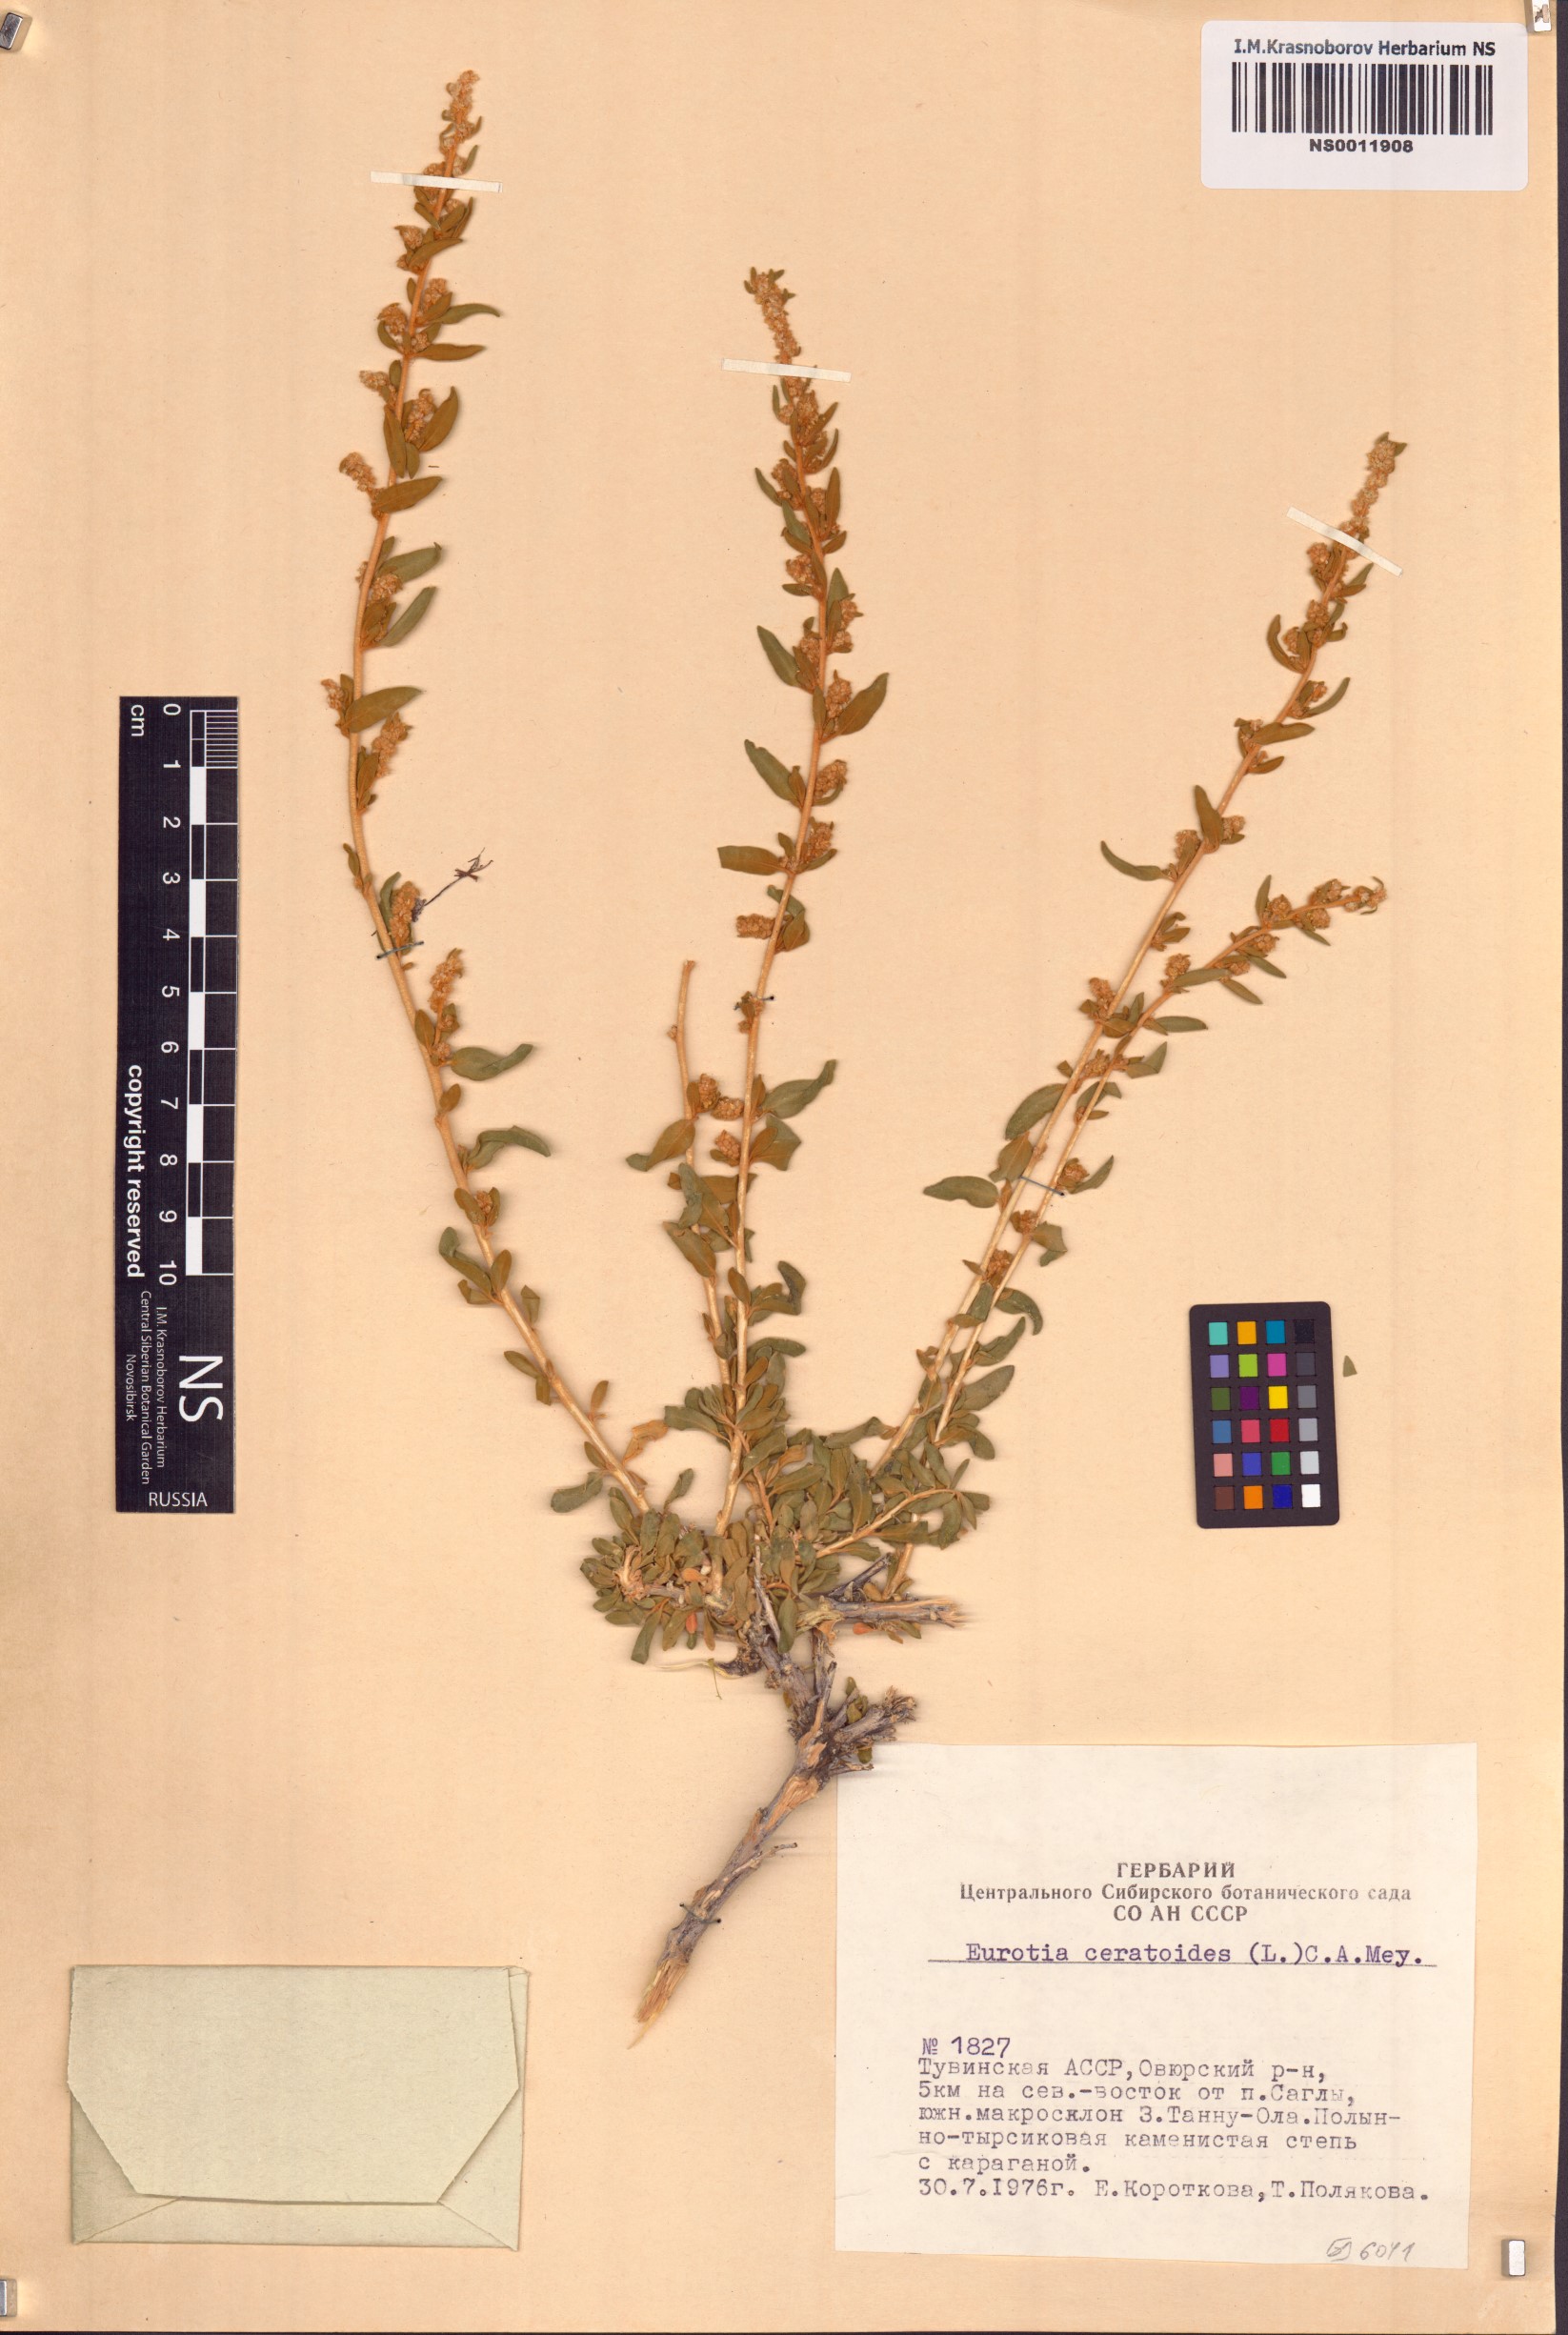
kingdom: Plantae
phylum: Tracheophyta
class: Magnoliopsida
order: Caryophyllales
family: Amaranthaceae
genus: Krascheninnikovia
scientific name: Krascheninnikovia ceratoides
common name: Pamirian winterfat
